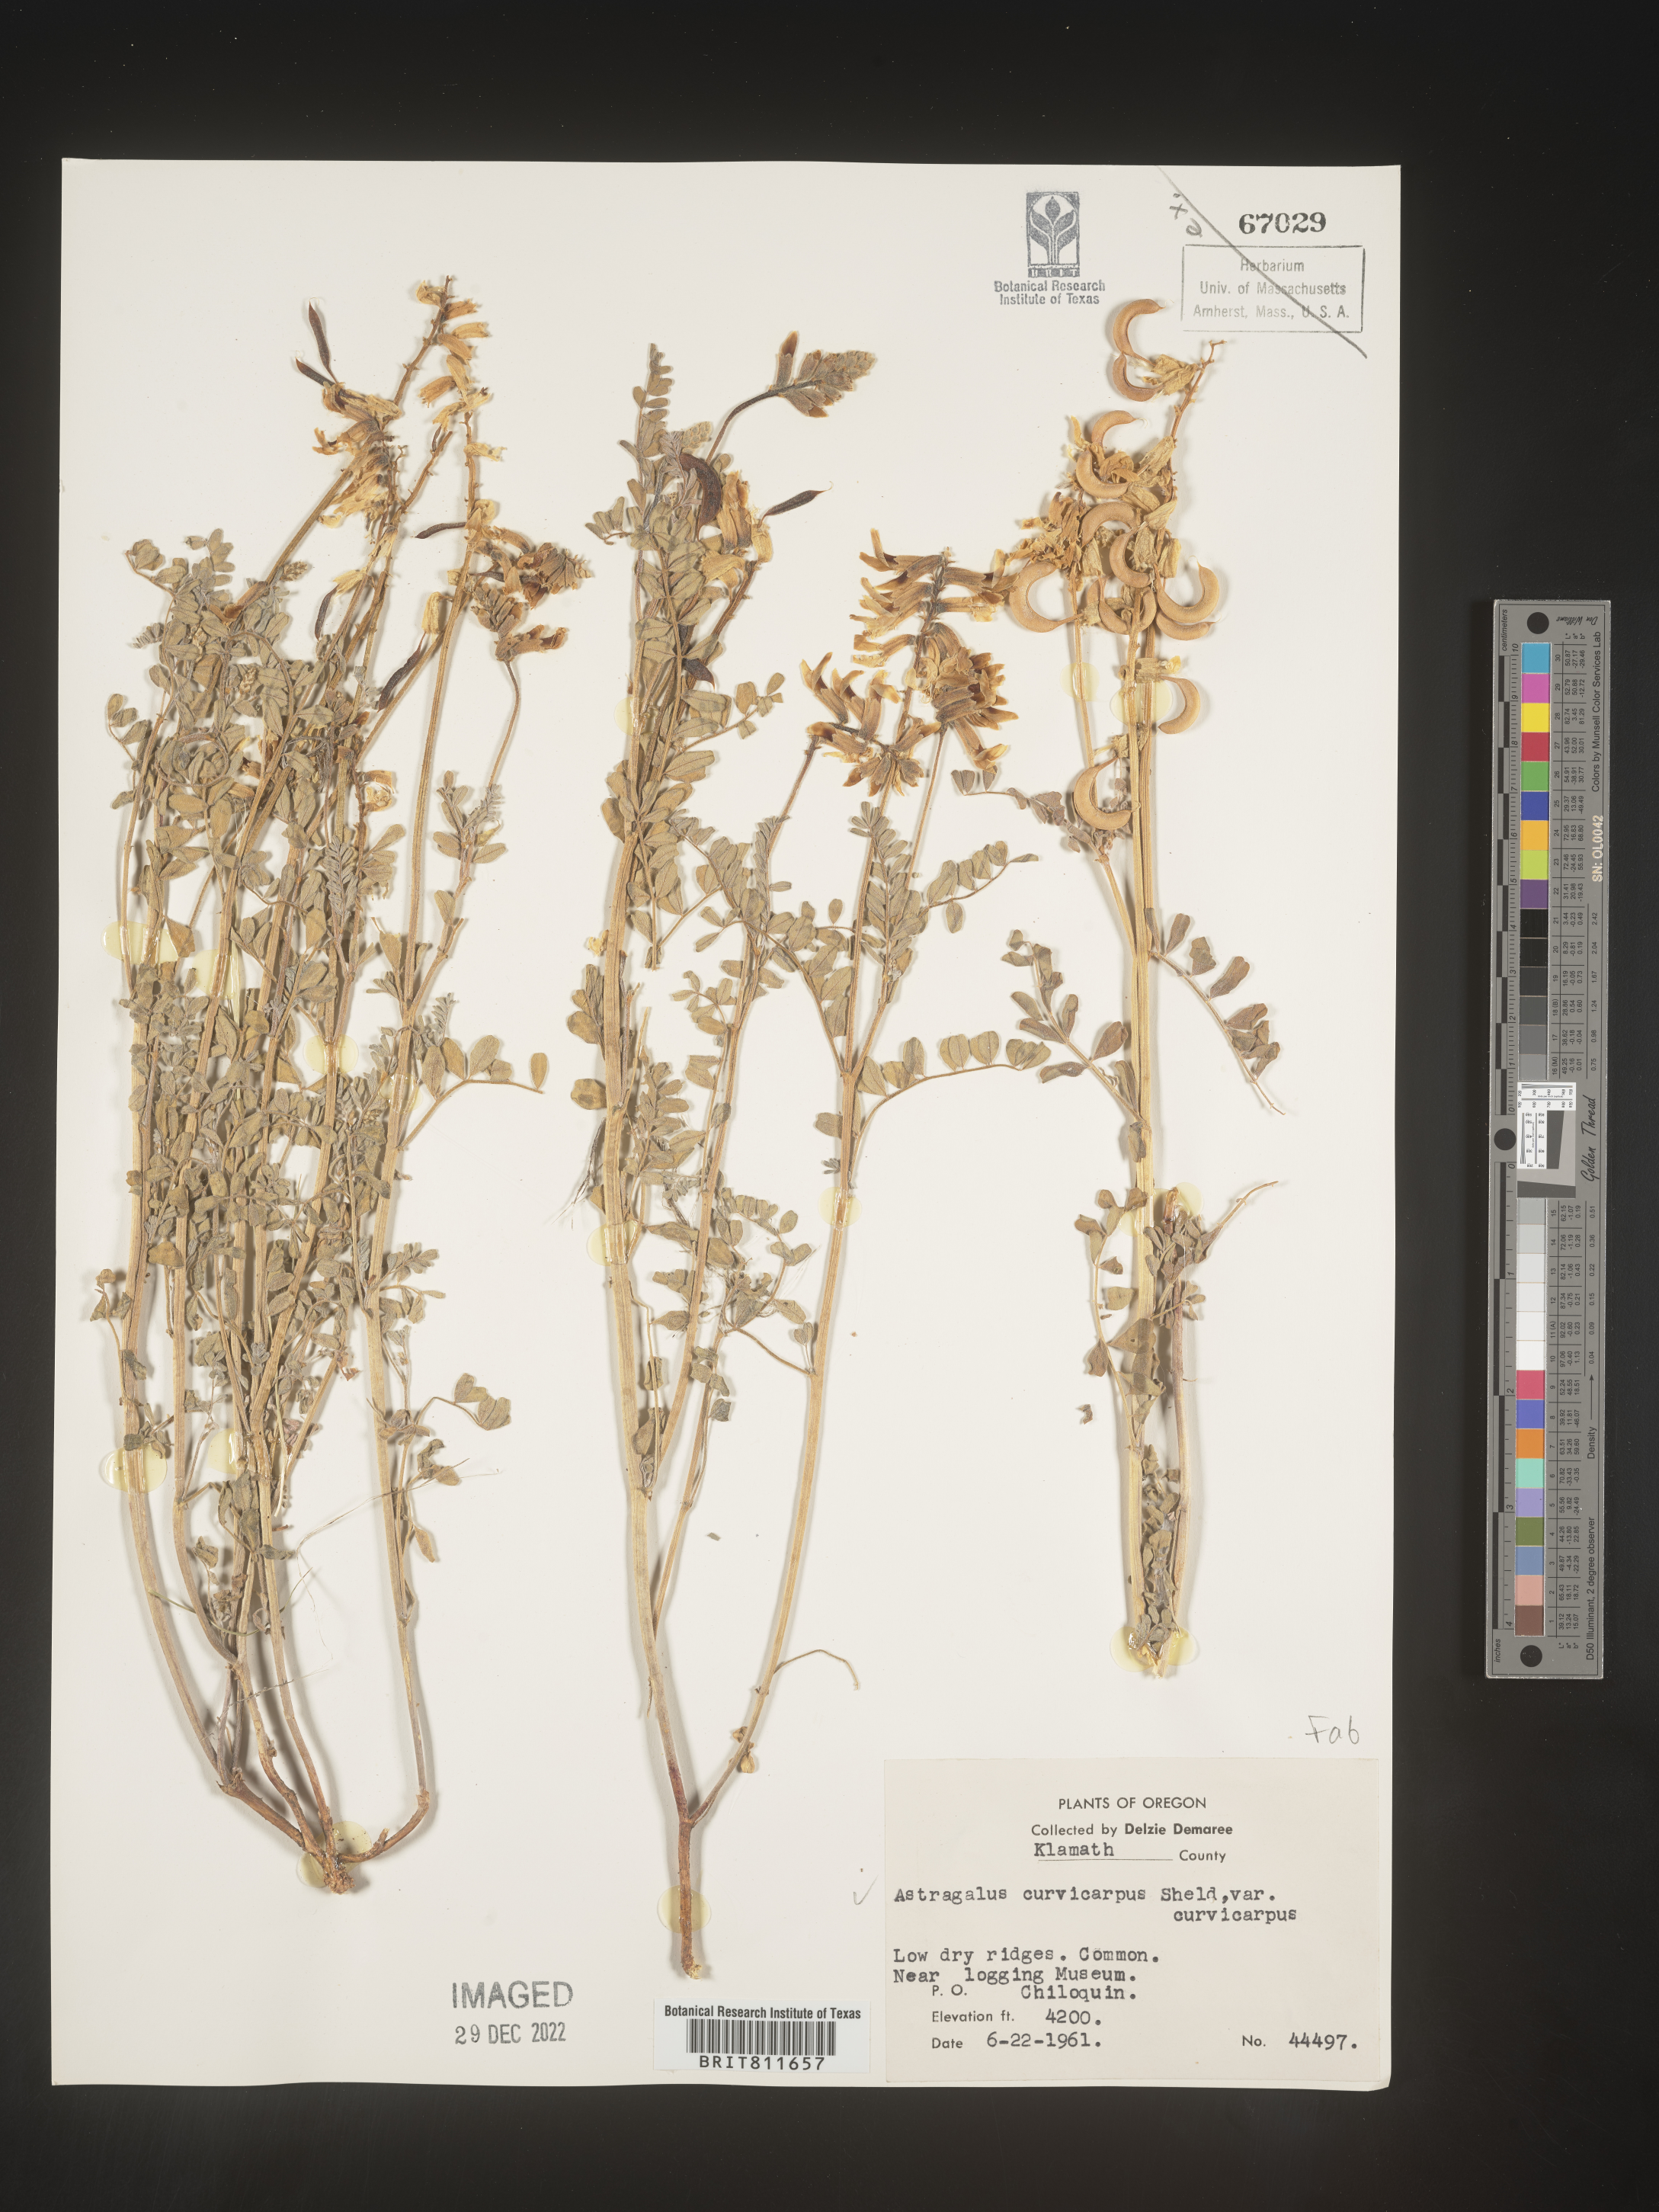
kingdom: Plantae
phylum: Tracheophyta
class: Magnoliopsida
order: Fabales
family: Fabaceae
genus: Astragalus
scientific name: Astragalus curvicarpus
